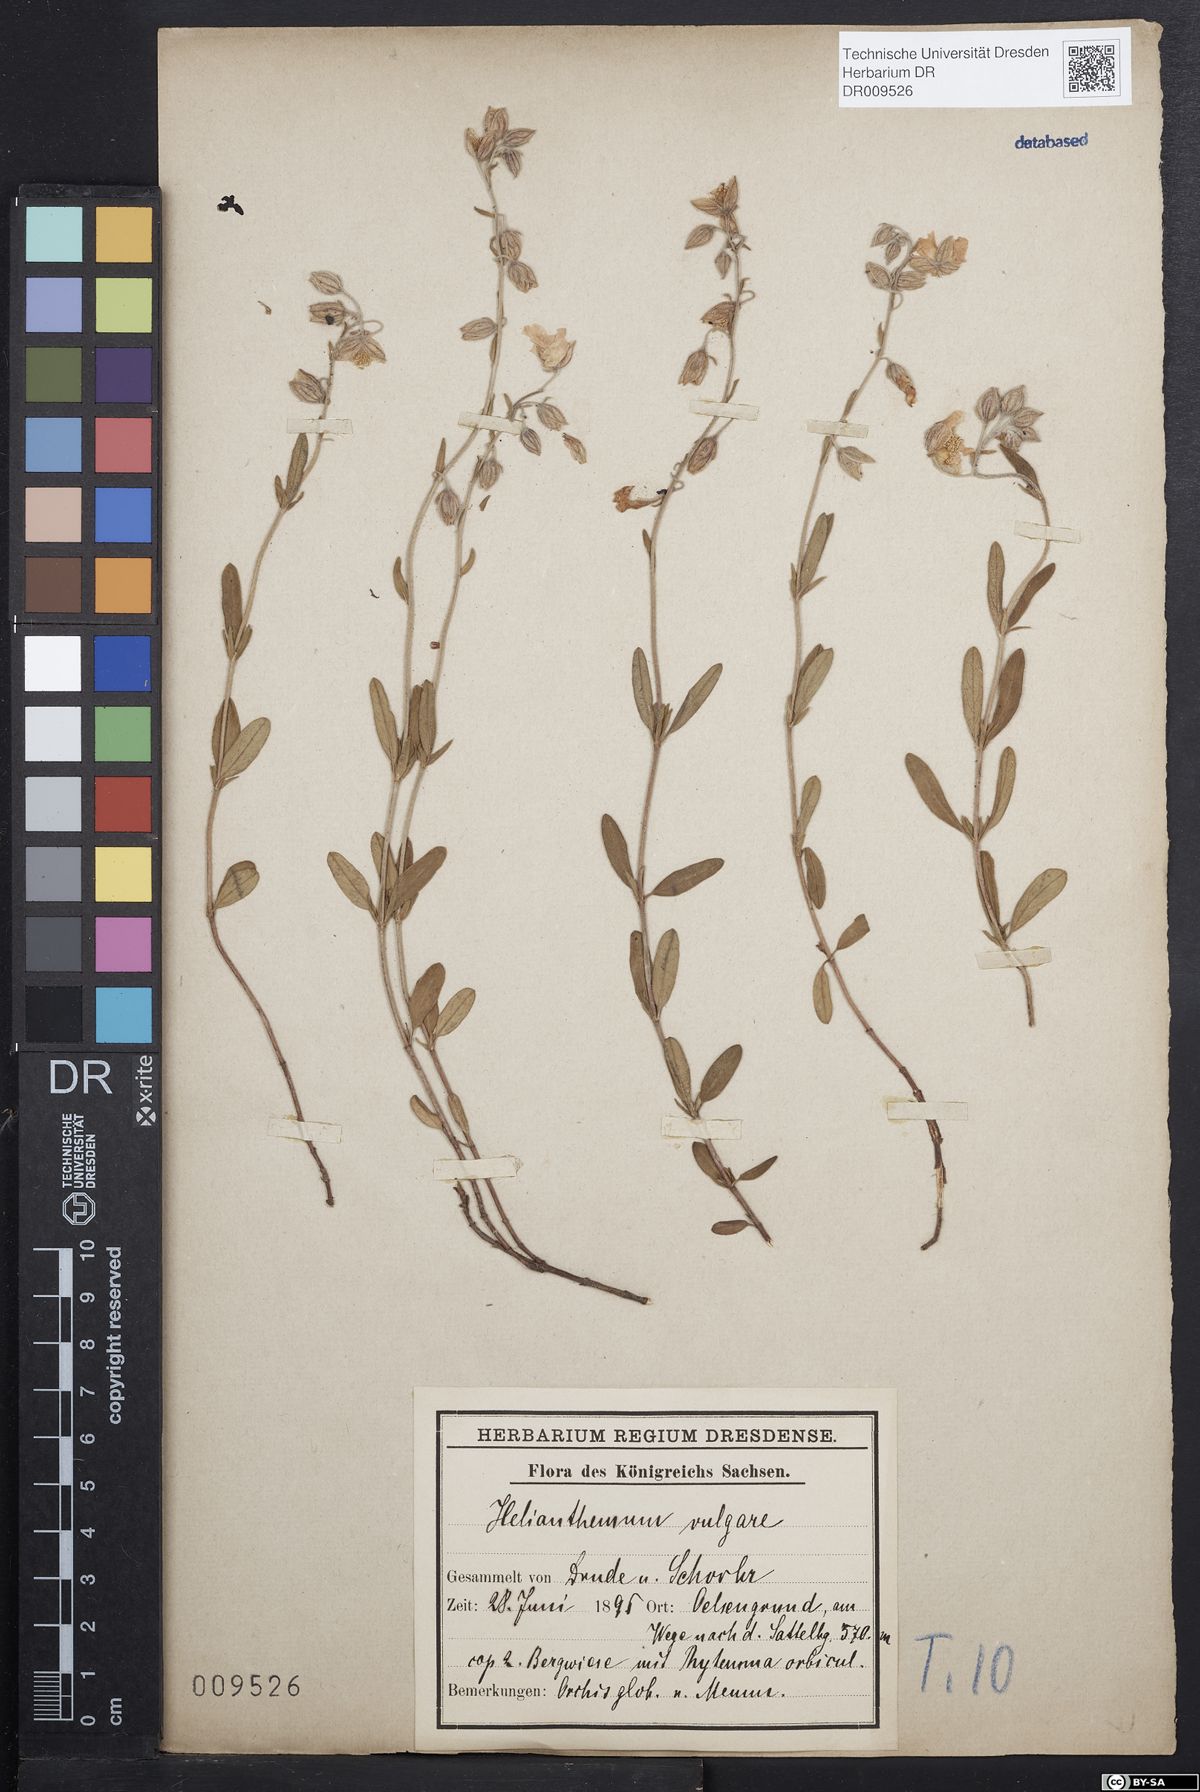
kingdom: Plantae
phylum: Tracheophyta
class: Magnoliopsida
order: Malvales
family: Cistaceae
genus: Helianthemum
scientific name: Helianthemum nummularium
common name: Common rock-rose
